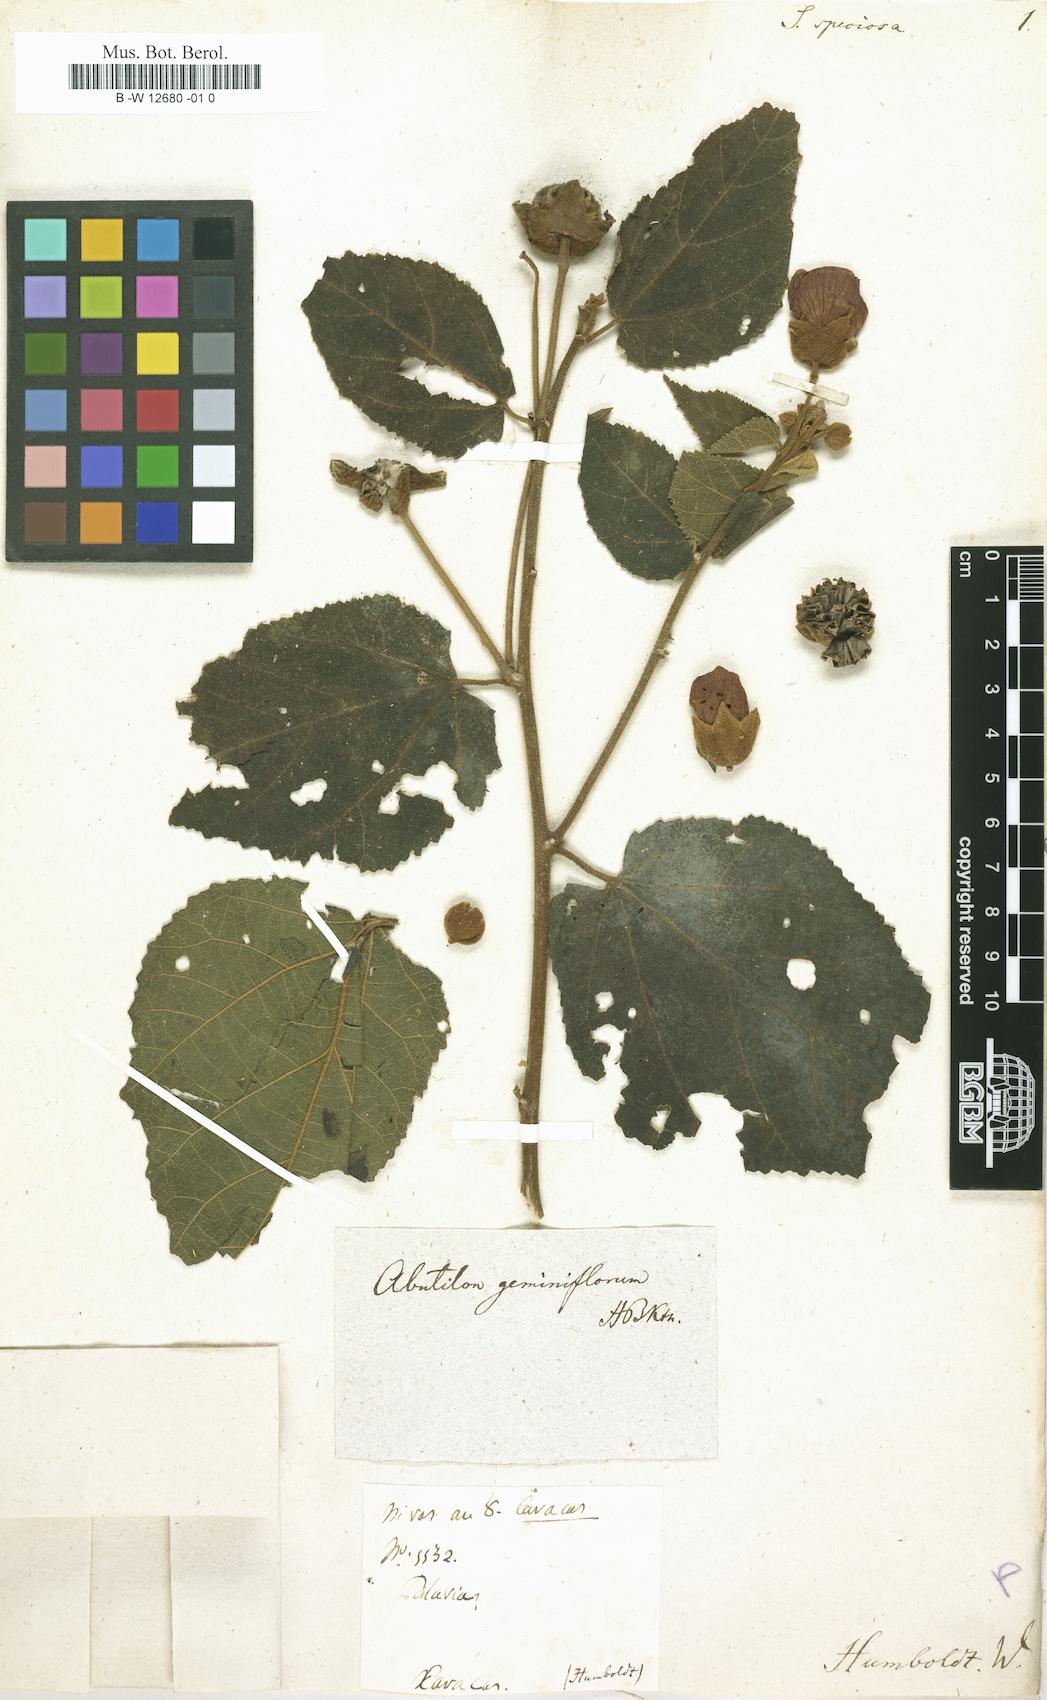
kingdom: Plantae
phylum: Tracheophyta
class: Magnoliopsida
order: Malvales
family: Malvaceae
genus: Bakeridesia
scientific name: Bakeridesia esculenta
